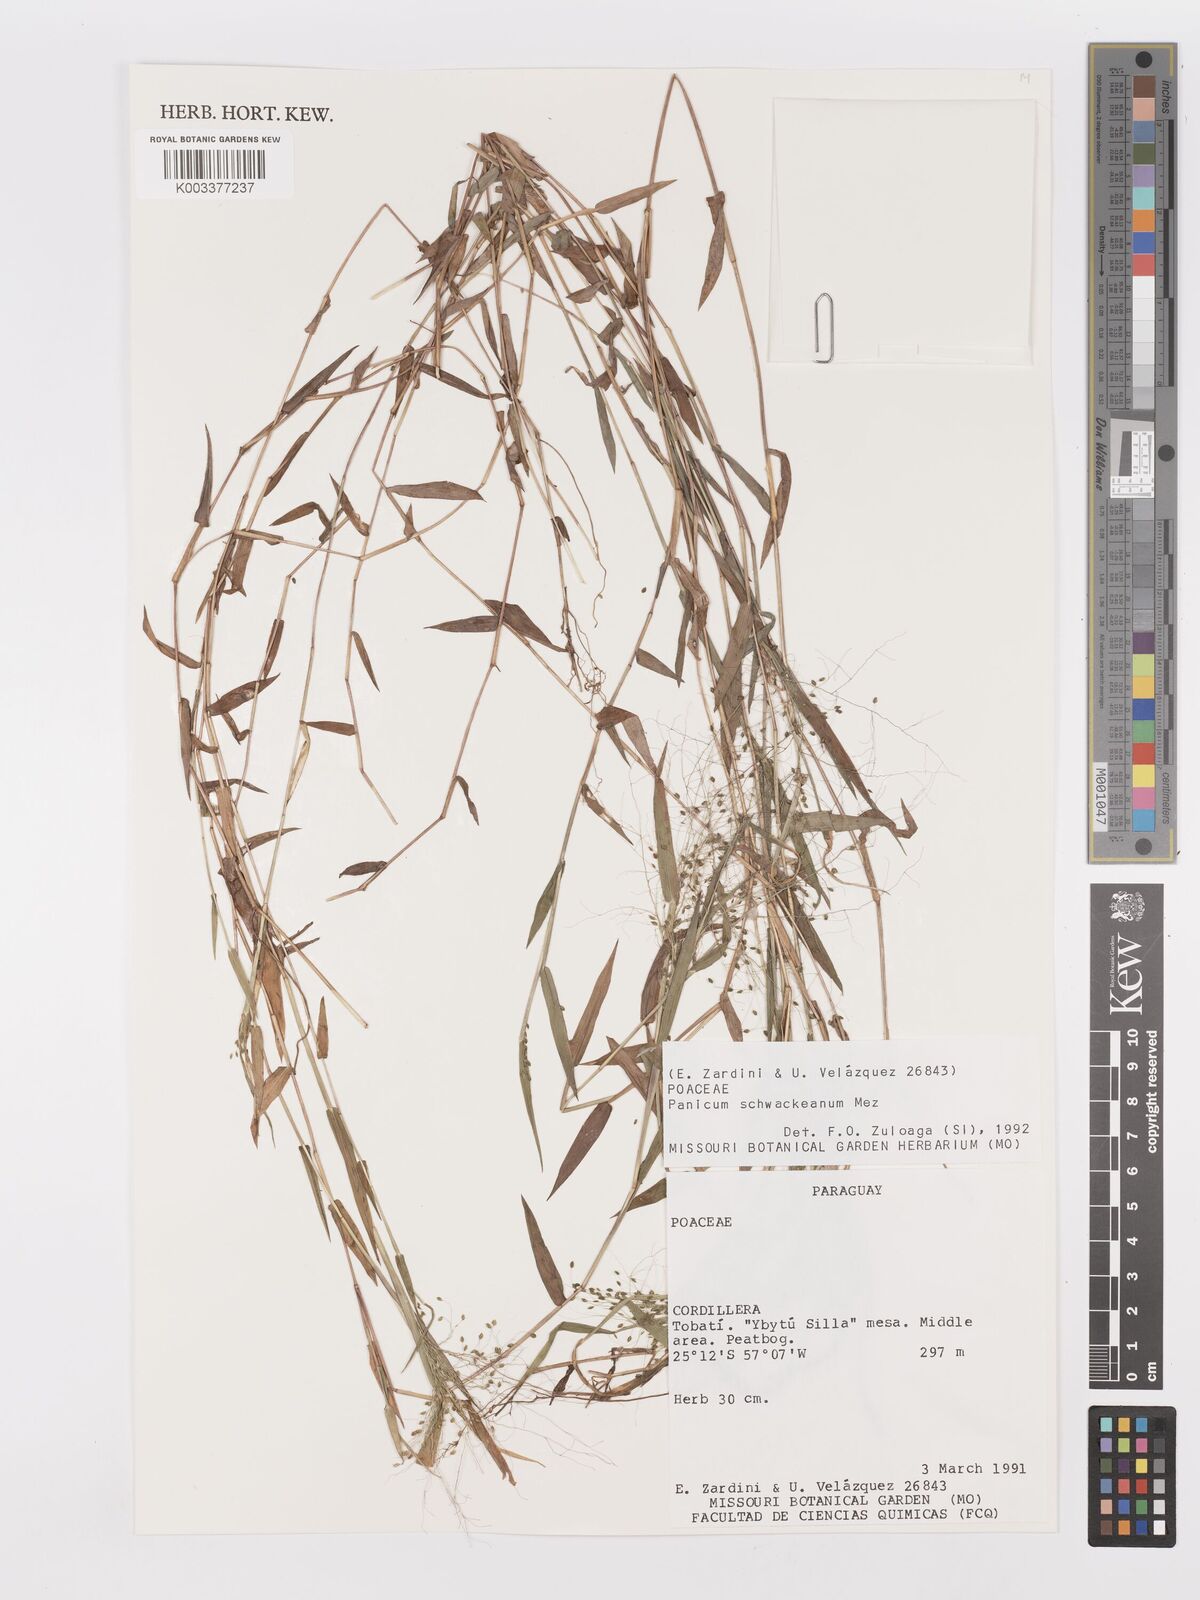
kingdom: Plantae
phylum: Tracheophyta
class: Liliopsida
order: Poales
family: Poaceae
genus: Trichanthecium
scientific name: Trichanthecium schwackeanum
